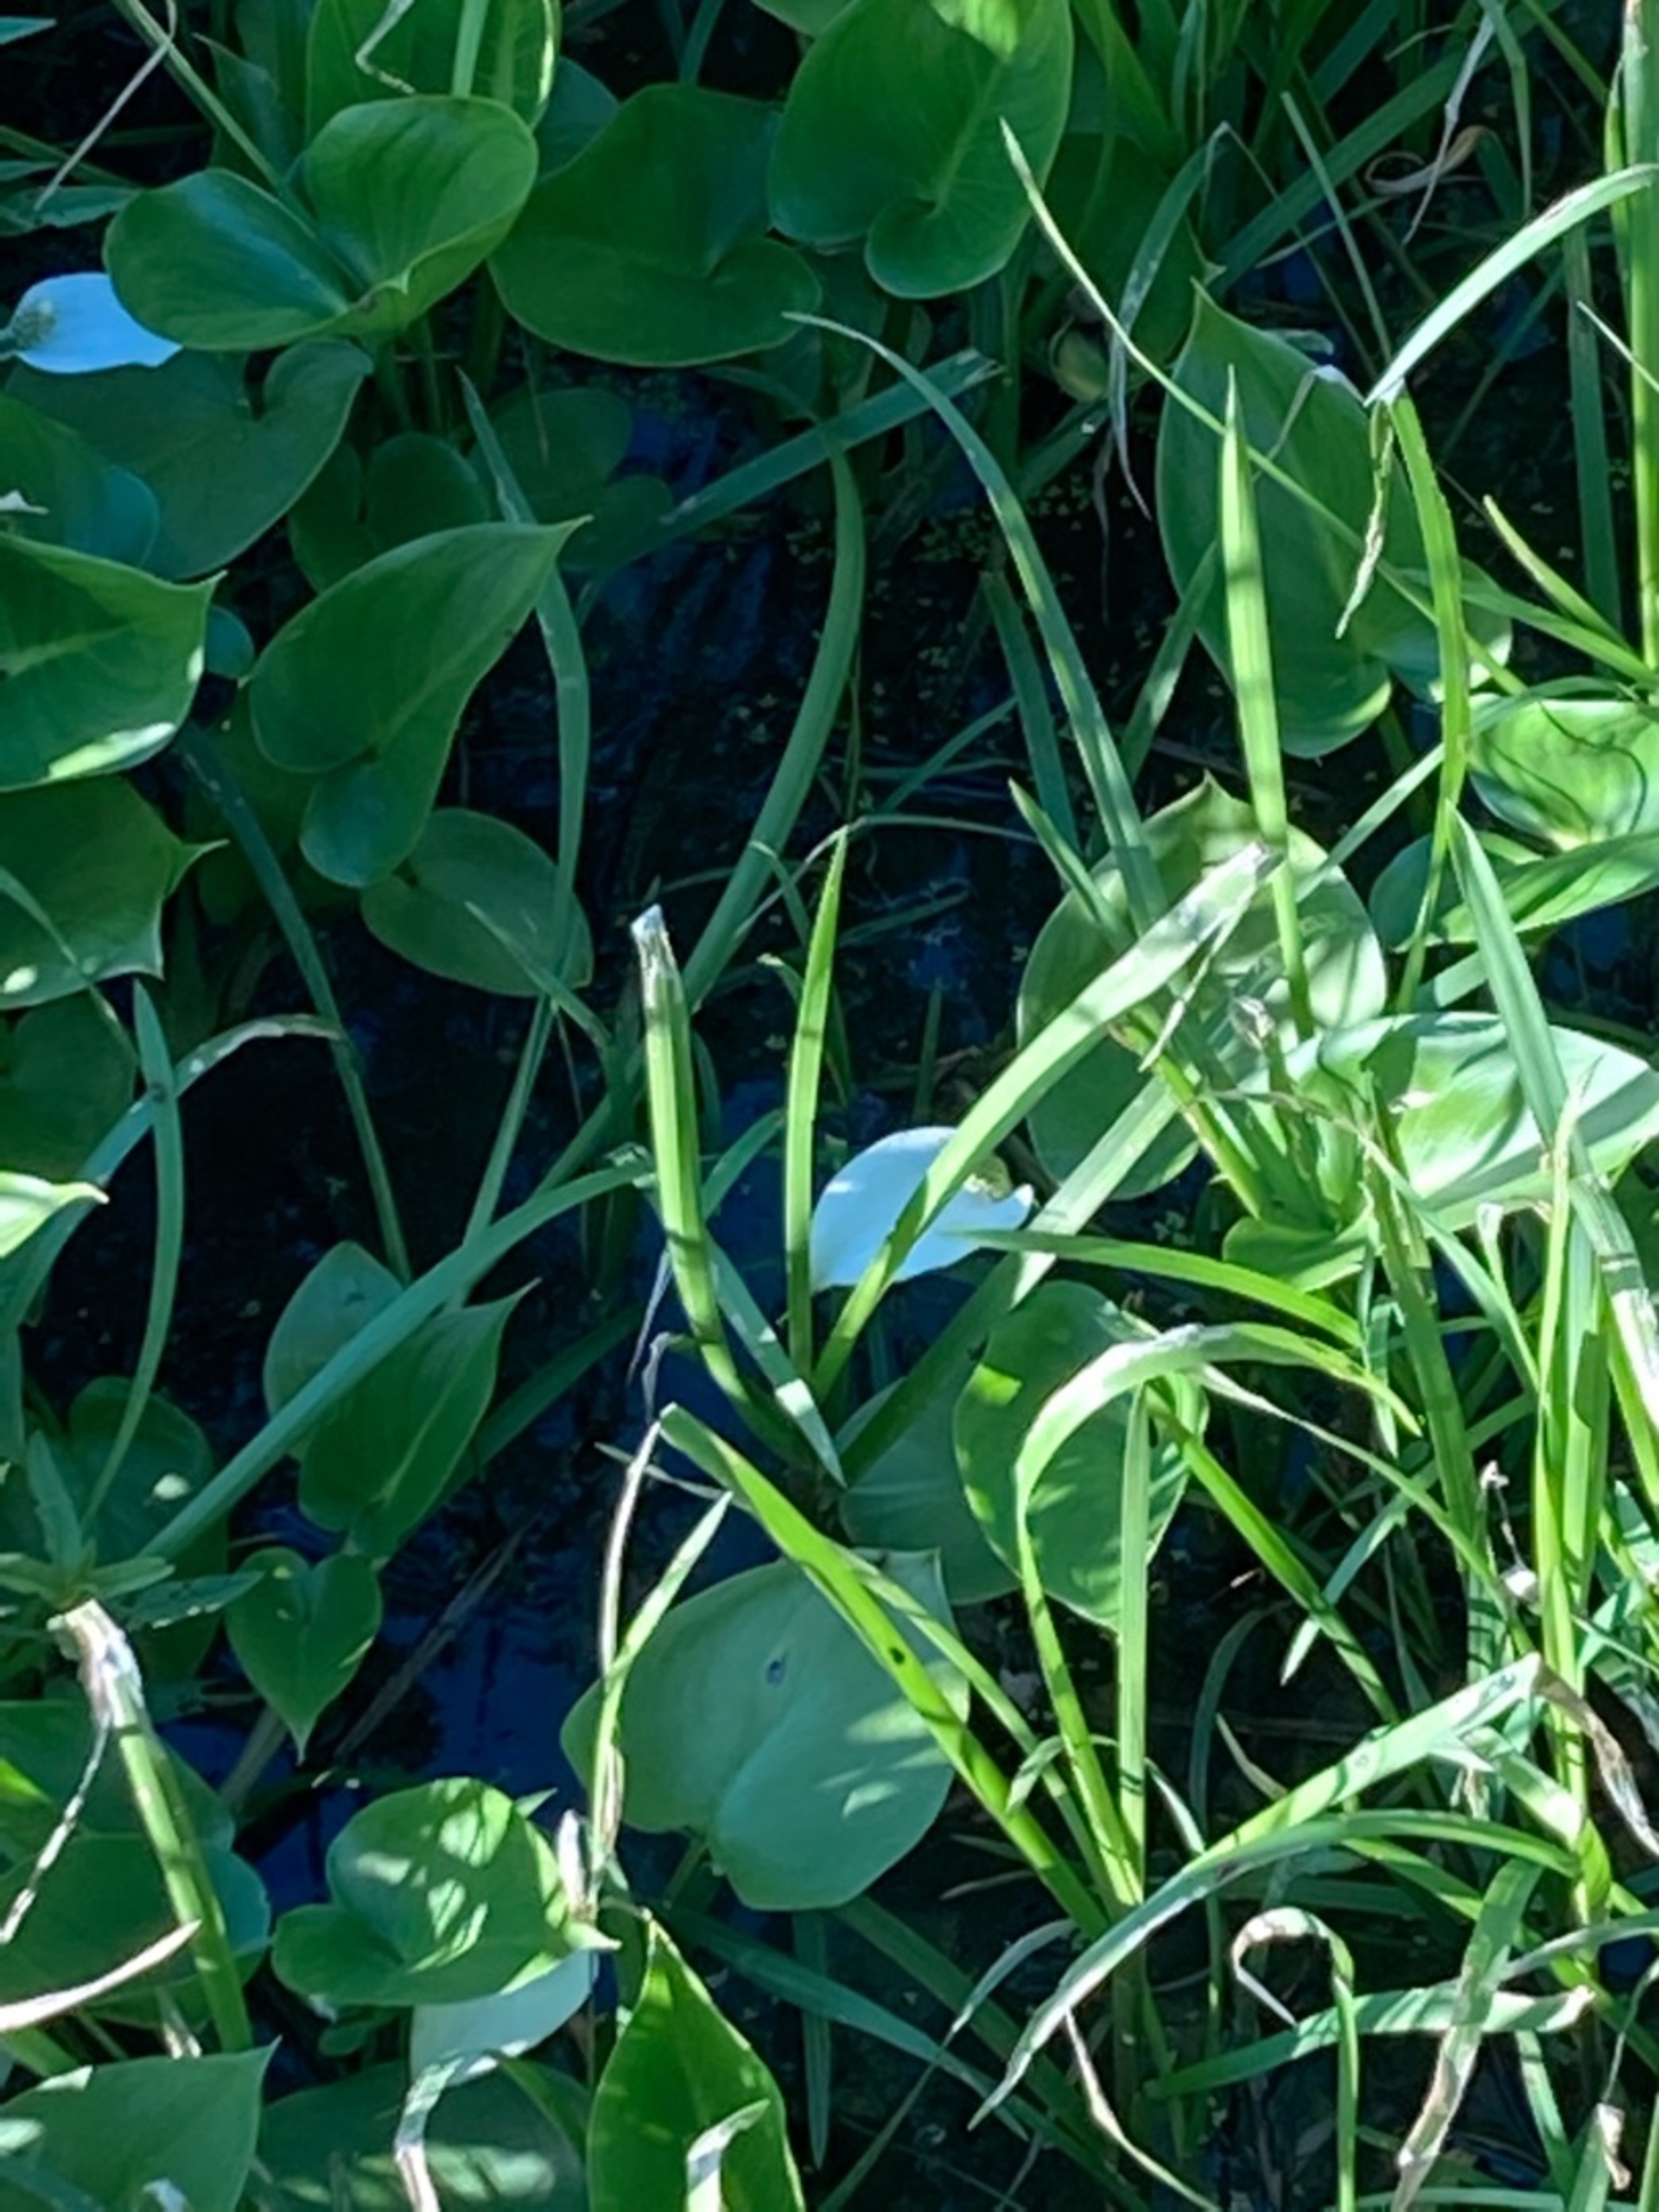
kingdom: Plantae
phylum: Tracheophyta
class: Liliopsida
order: Alismatales
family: Araceae
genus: Calla
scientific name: Calla palustris
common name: Kærmysse
